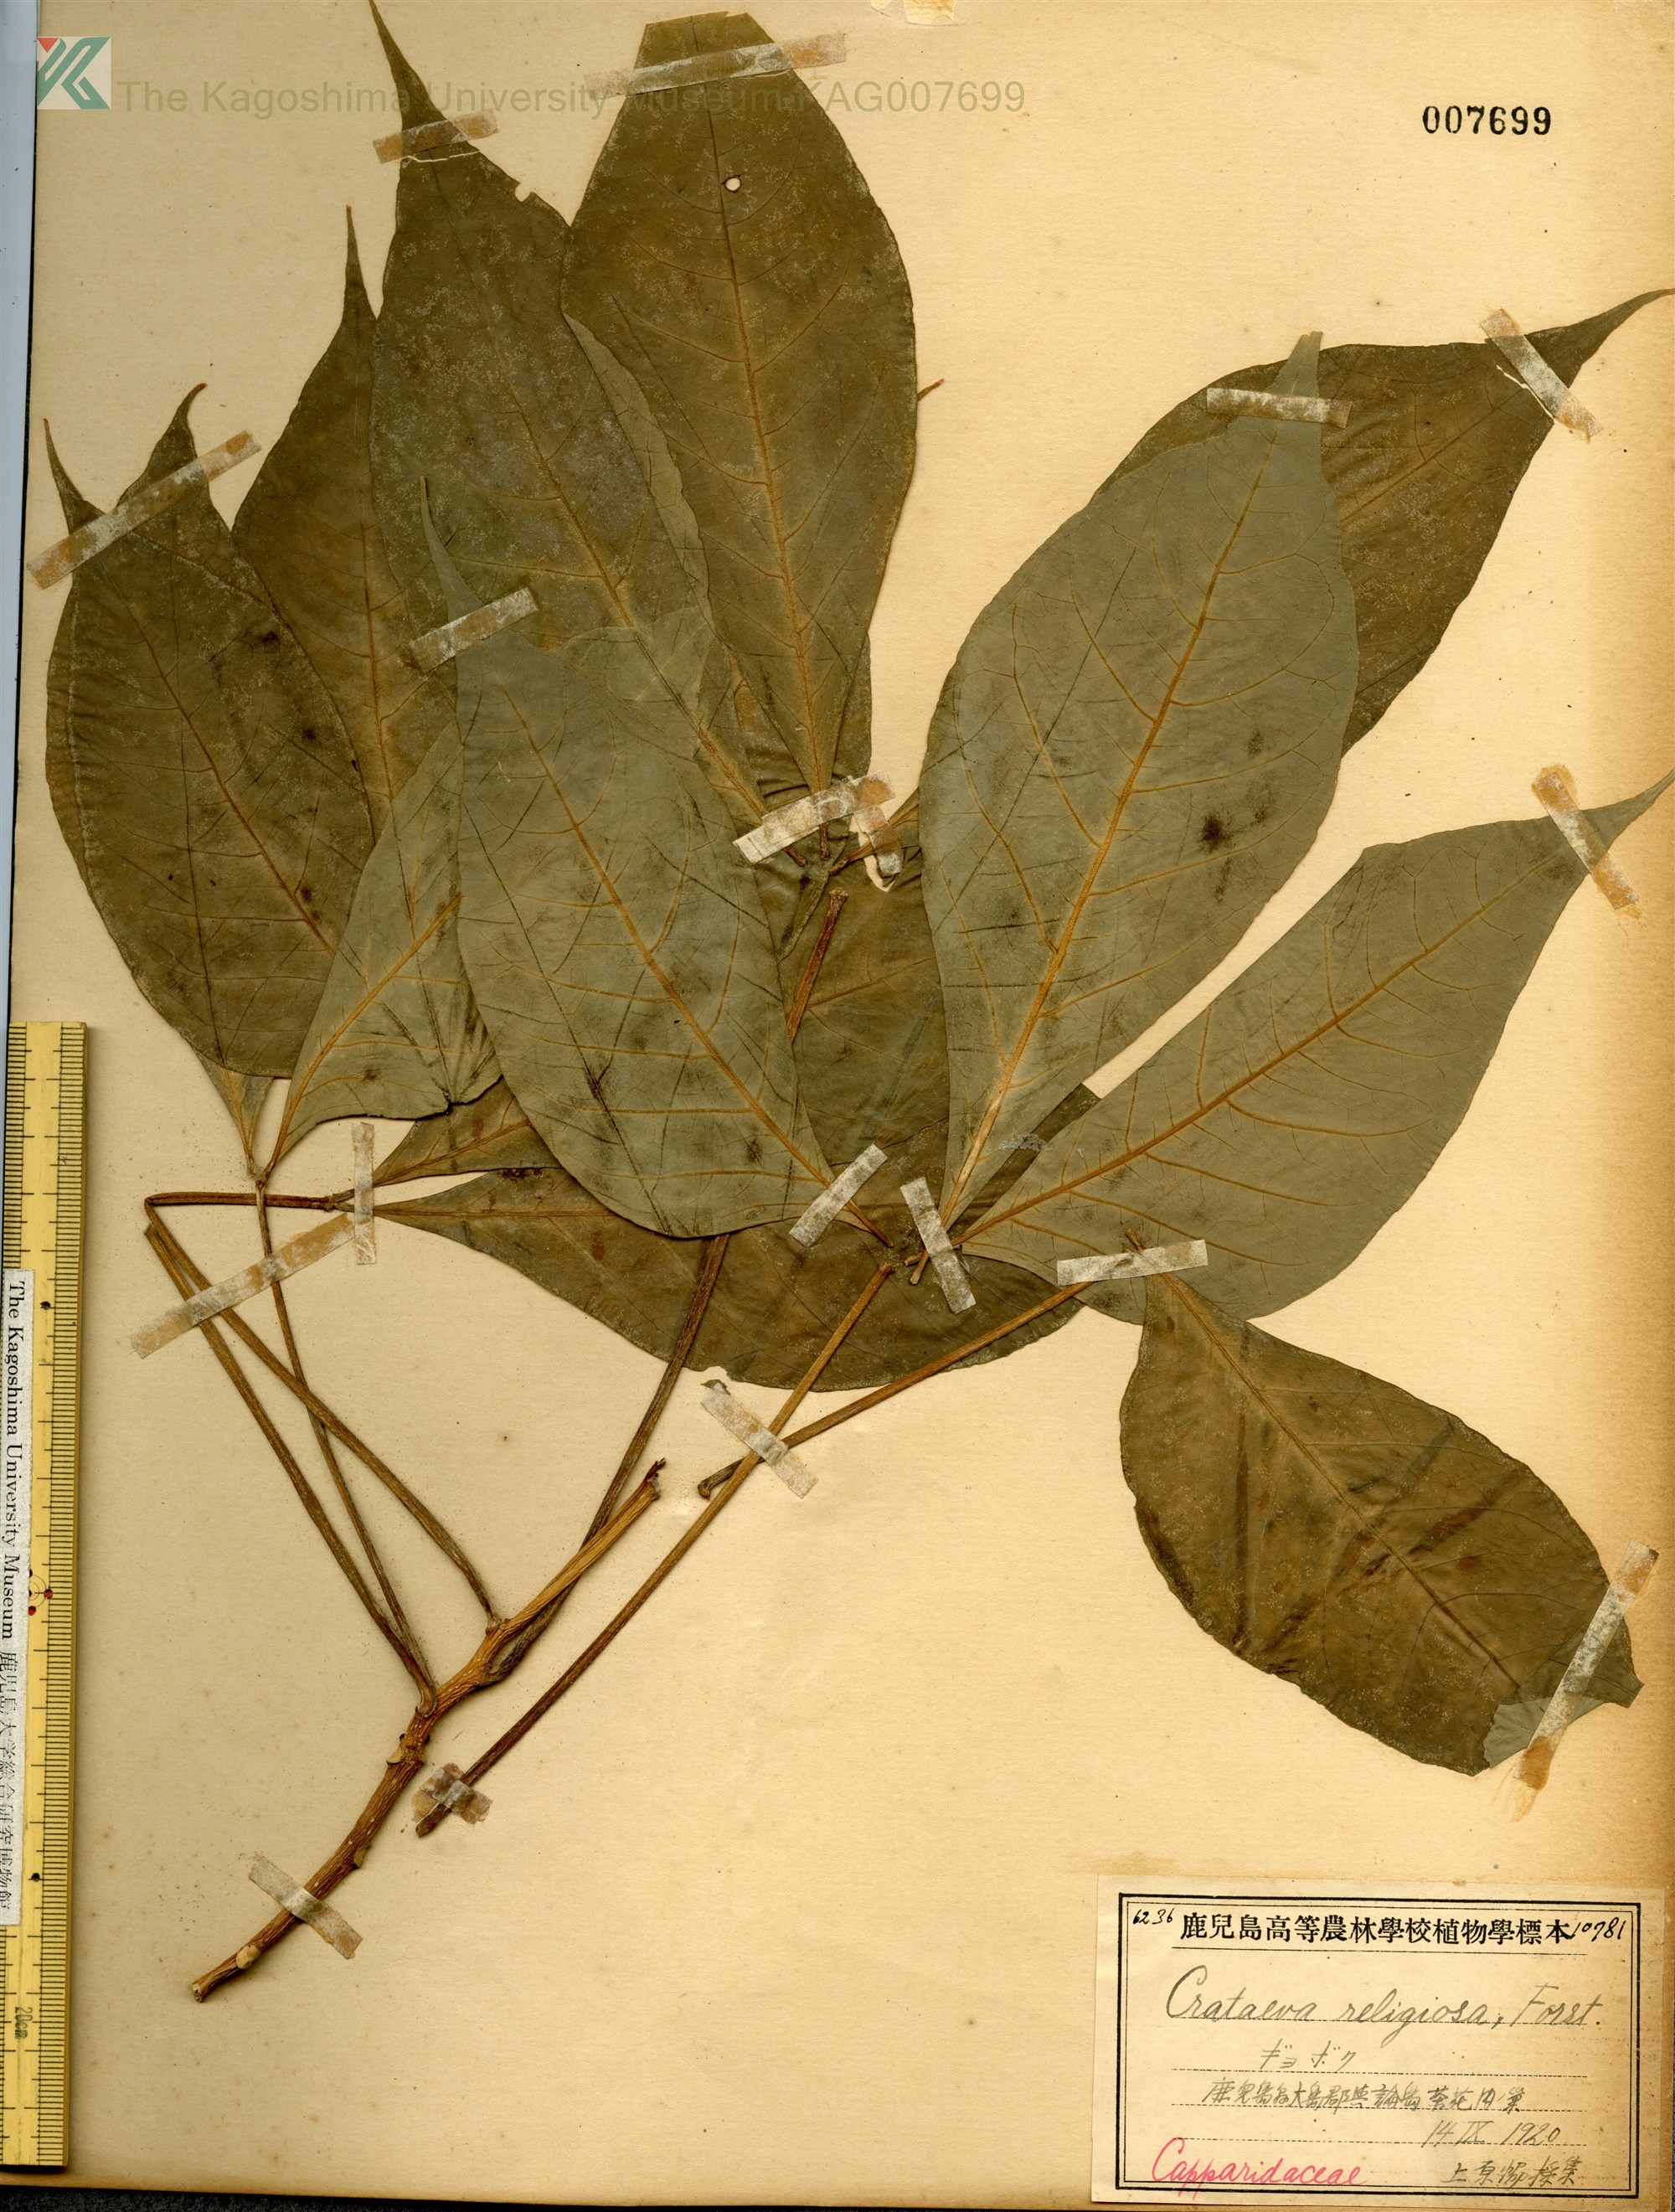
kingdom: Plantae
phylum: Tracheophyta
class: Magnoliopsida
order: Brassicales
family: Capparaceae
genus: Crateva
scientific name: Crateva formosensis
